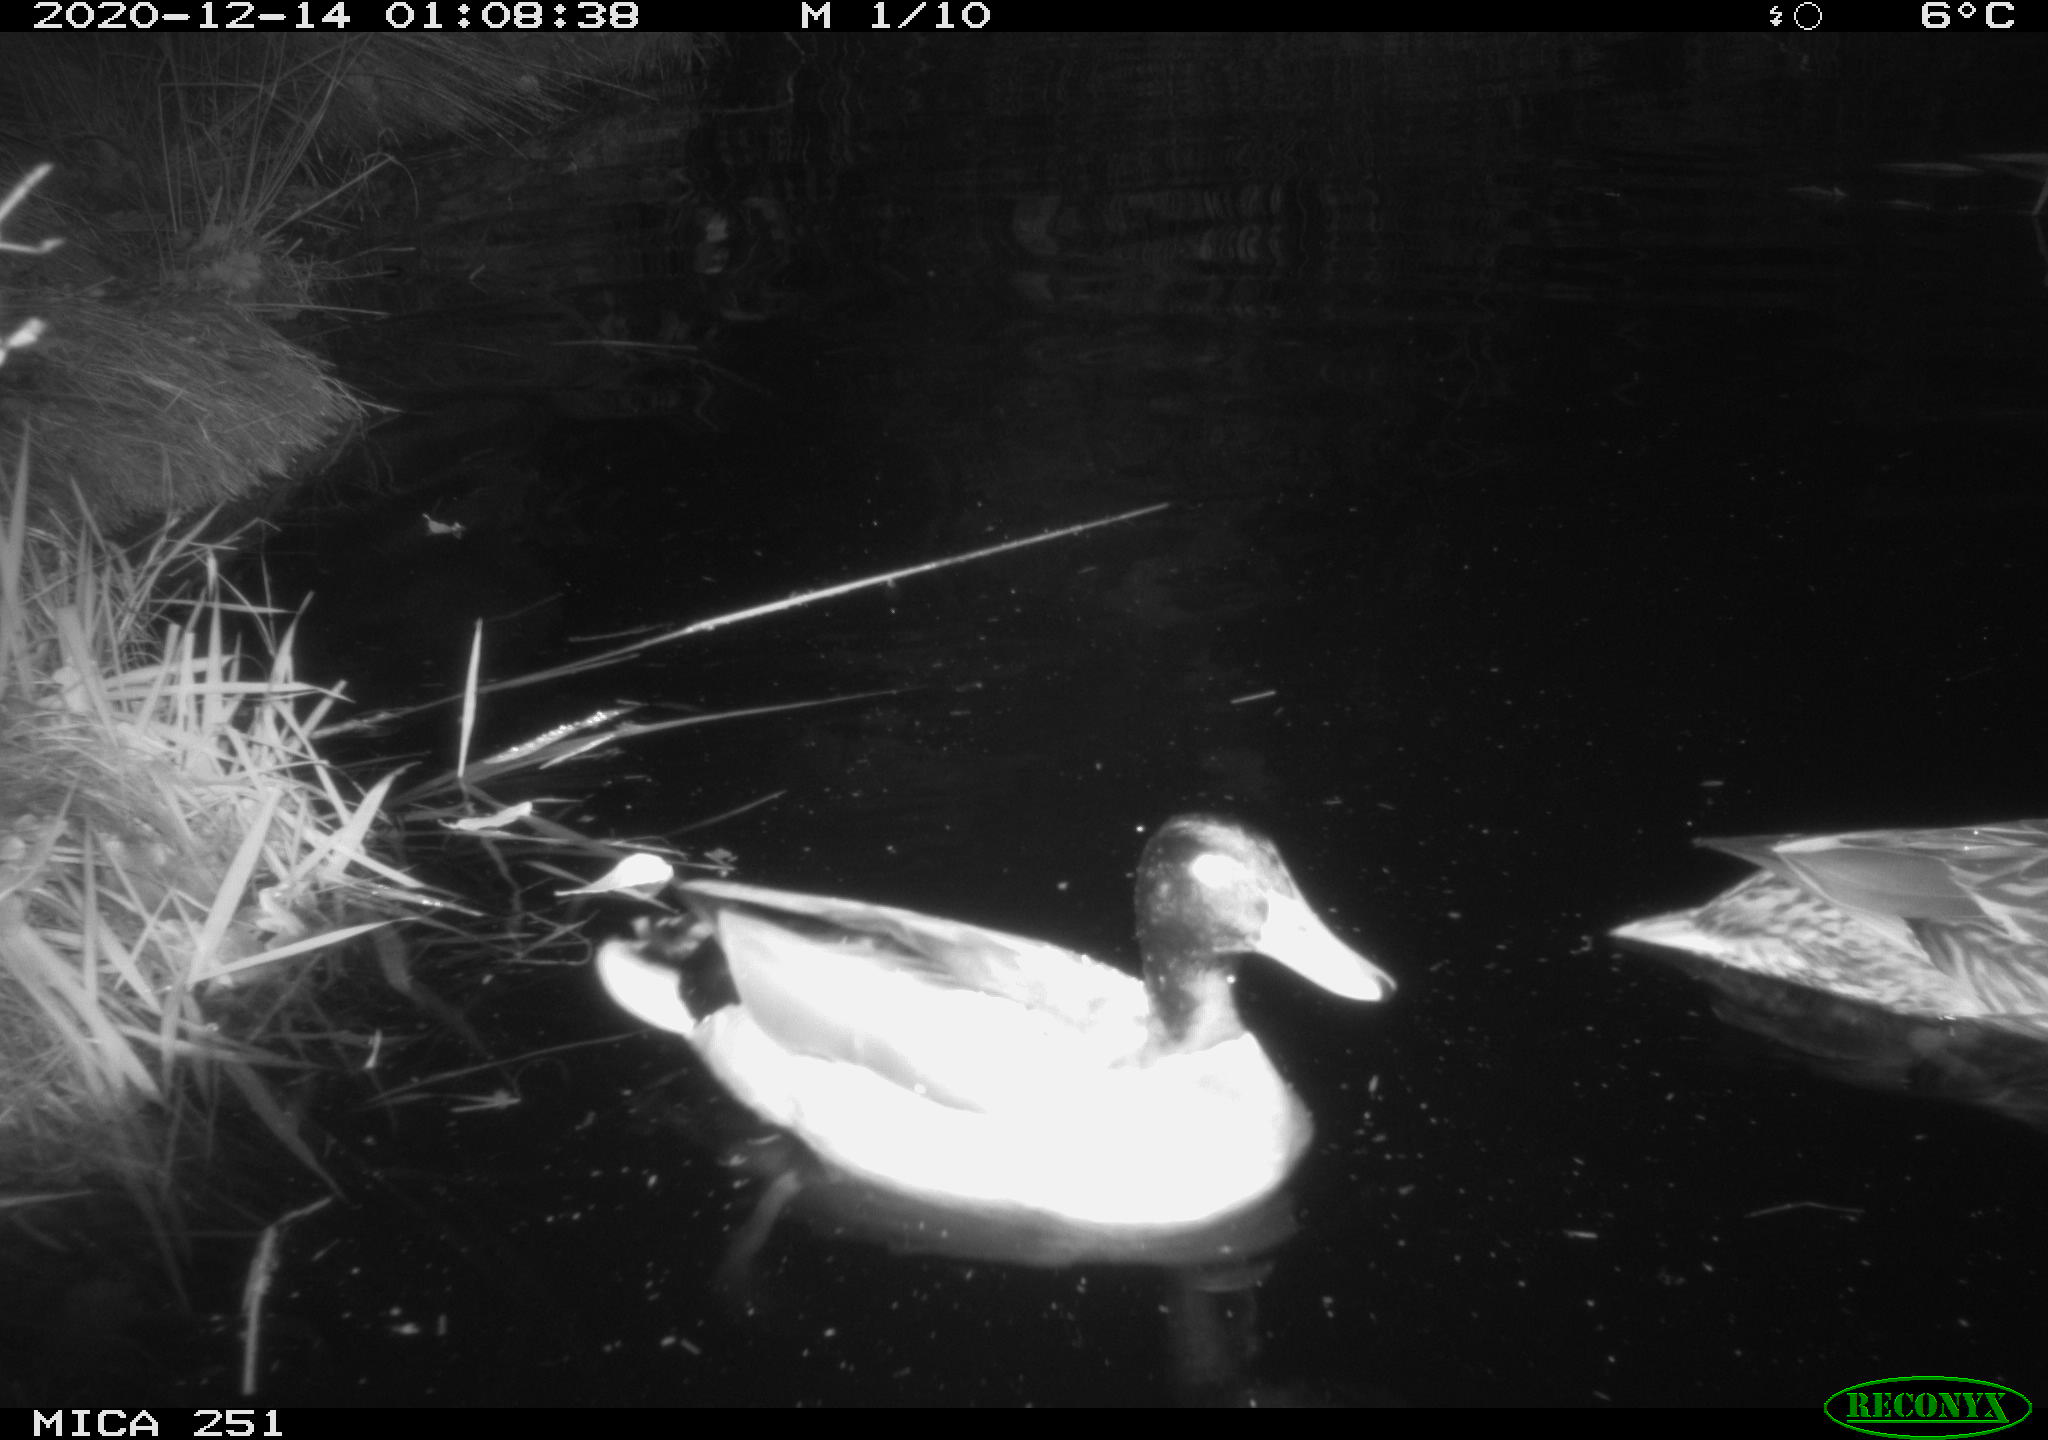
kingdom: Animalia
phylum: Chordata
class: Aves
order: Anseriformes
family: Anatidae
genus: Anas
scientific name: Anas platyrhynchos
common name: Mallard
